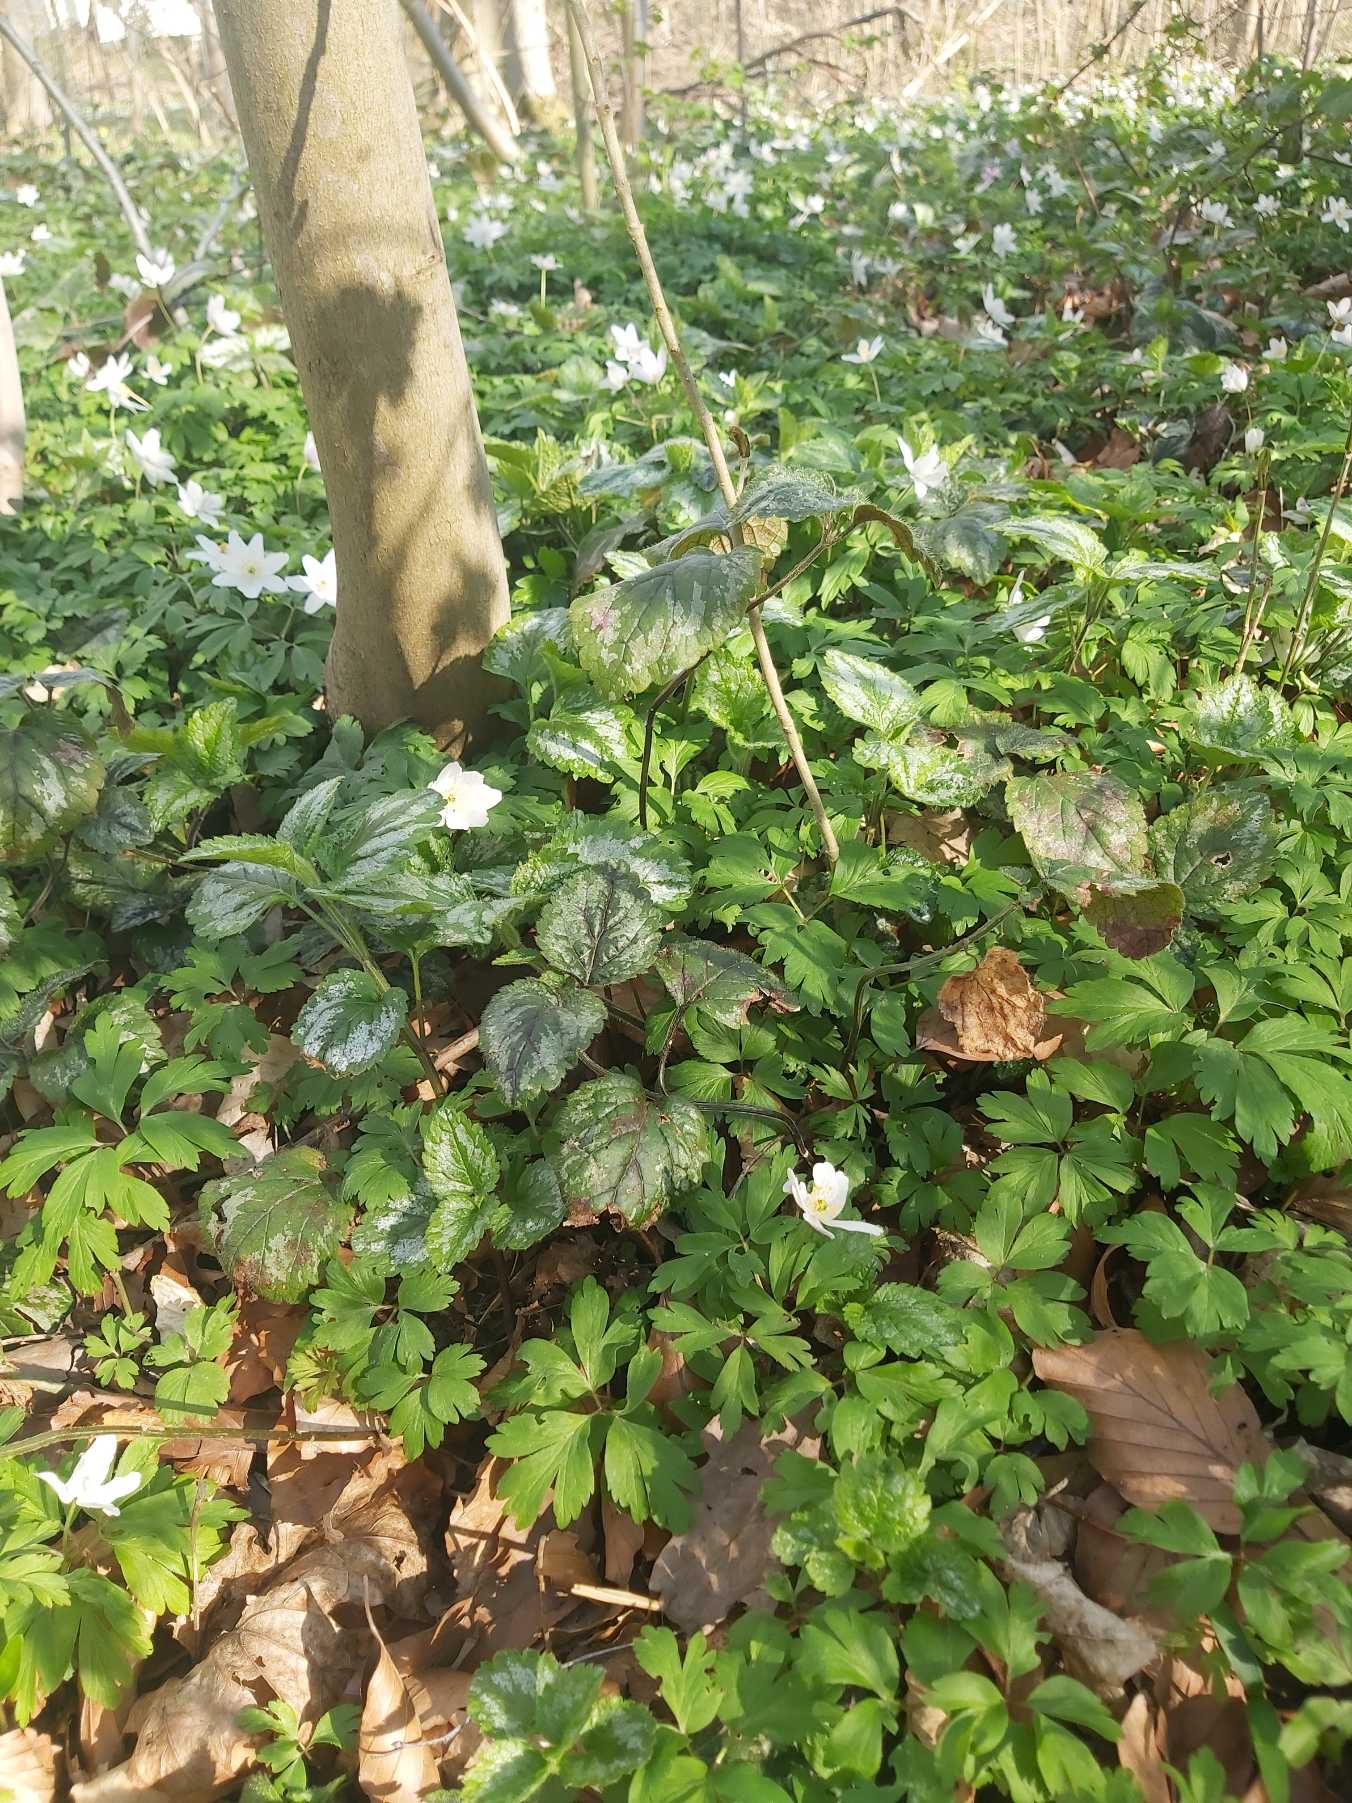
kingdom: Plantae
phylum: Tracheophyta
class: Magnoliopsida
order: Lamiales
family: Lamiaceae
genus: Lamium
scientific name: Lamium galeobdolon
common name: Have-guldnælde
